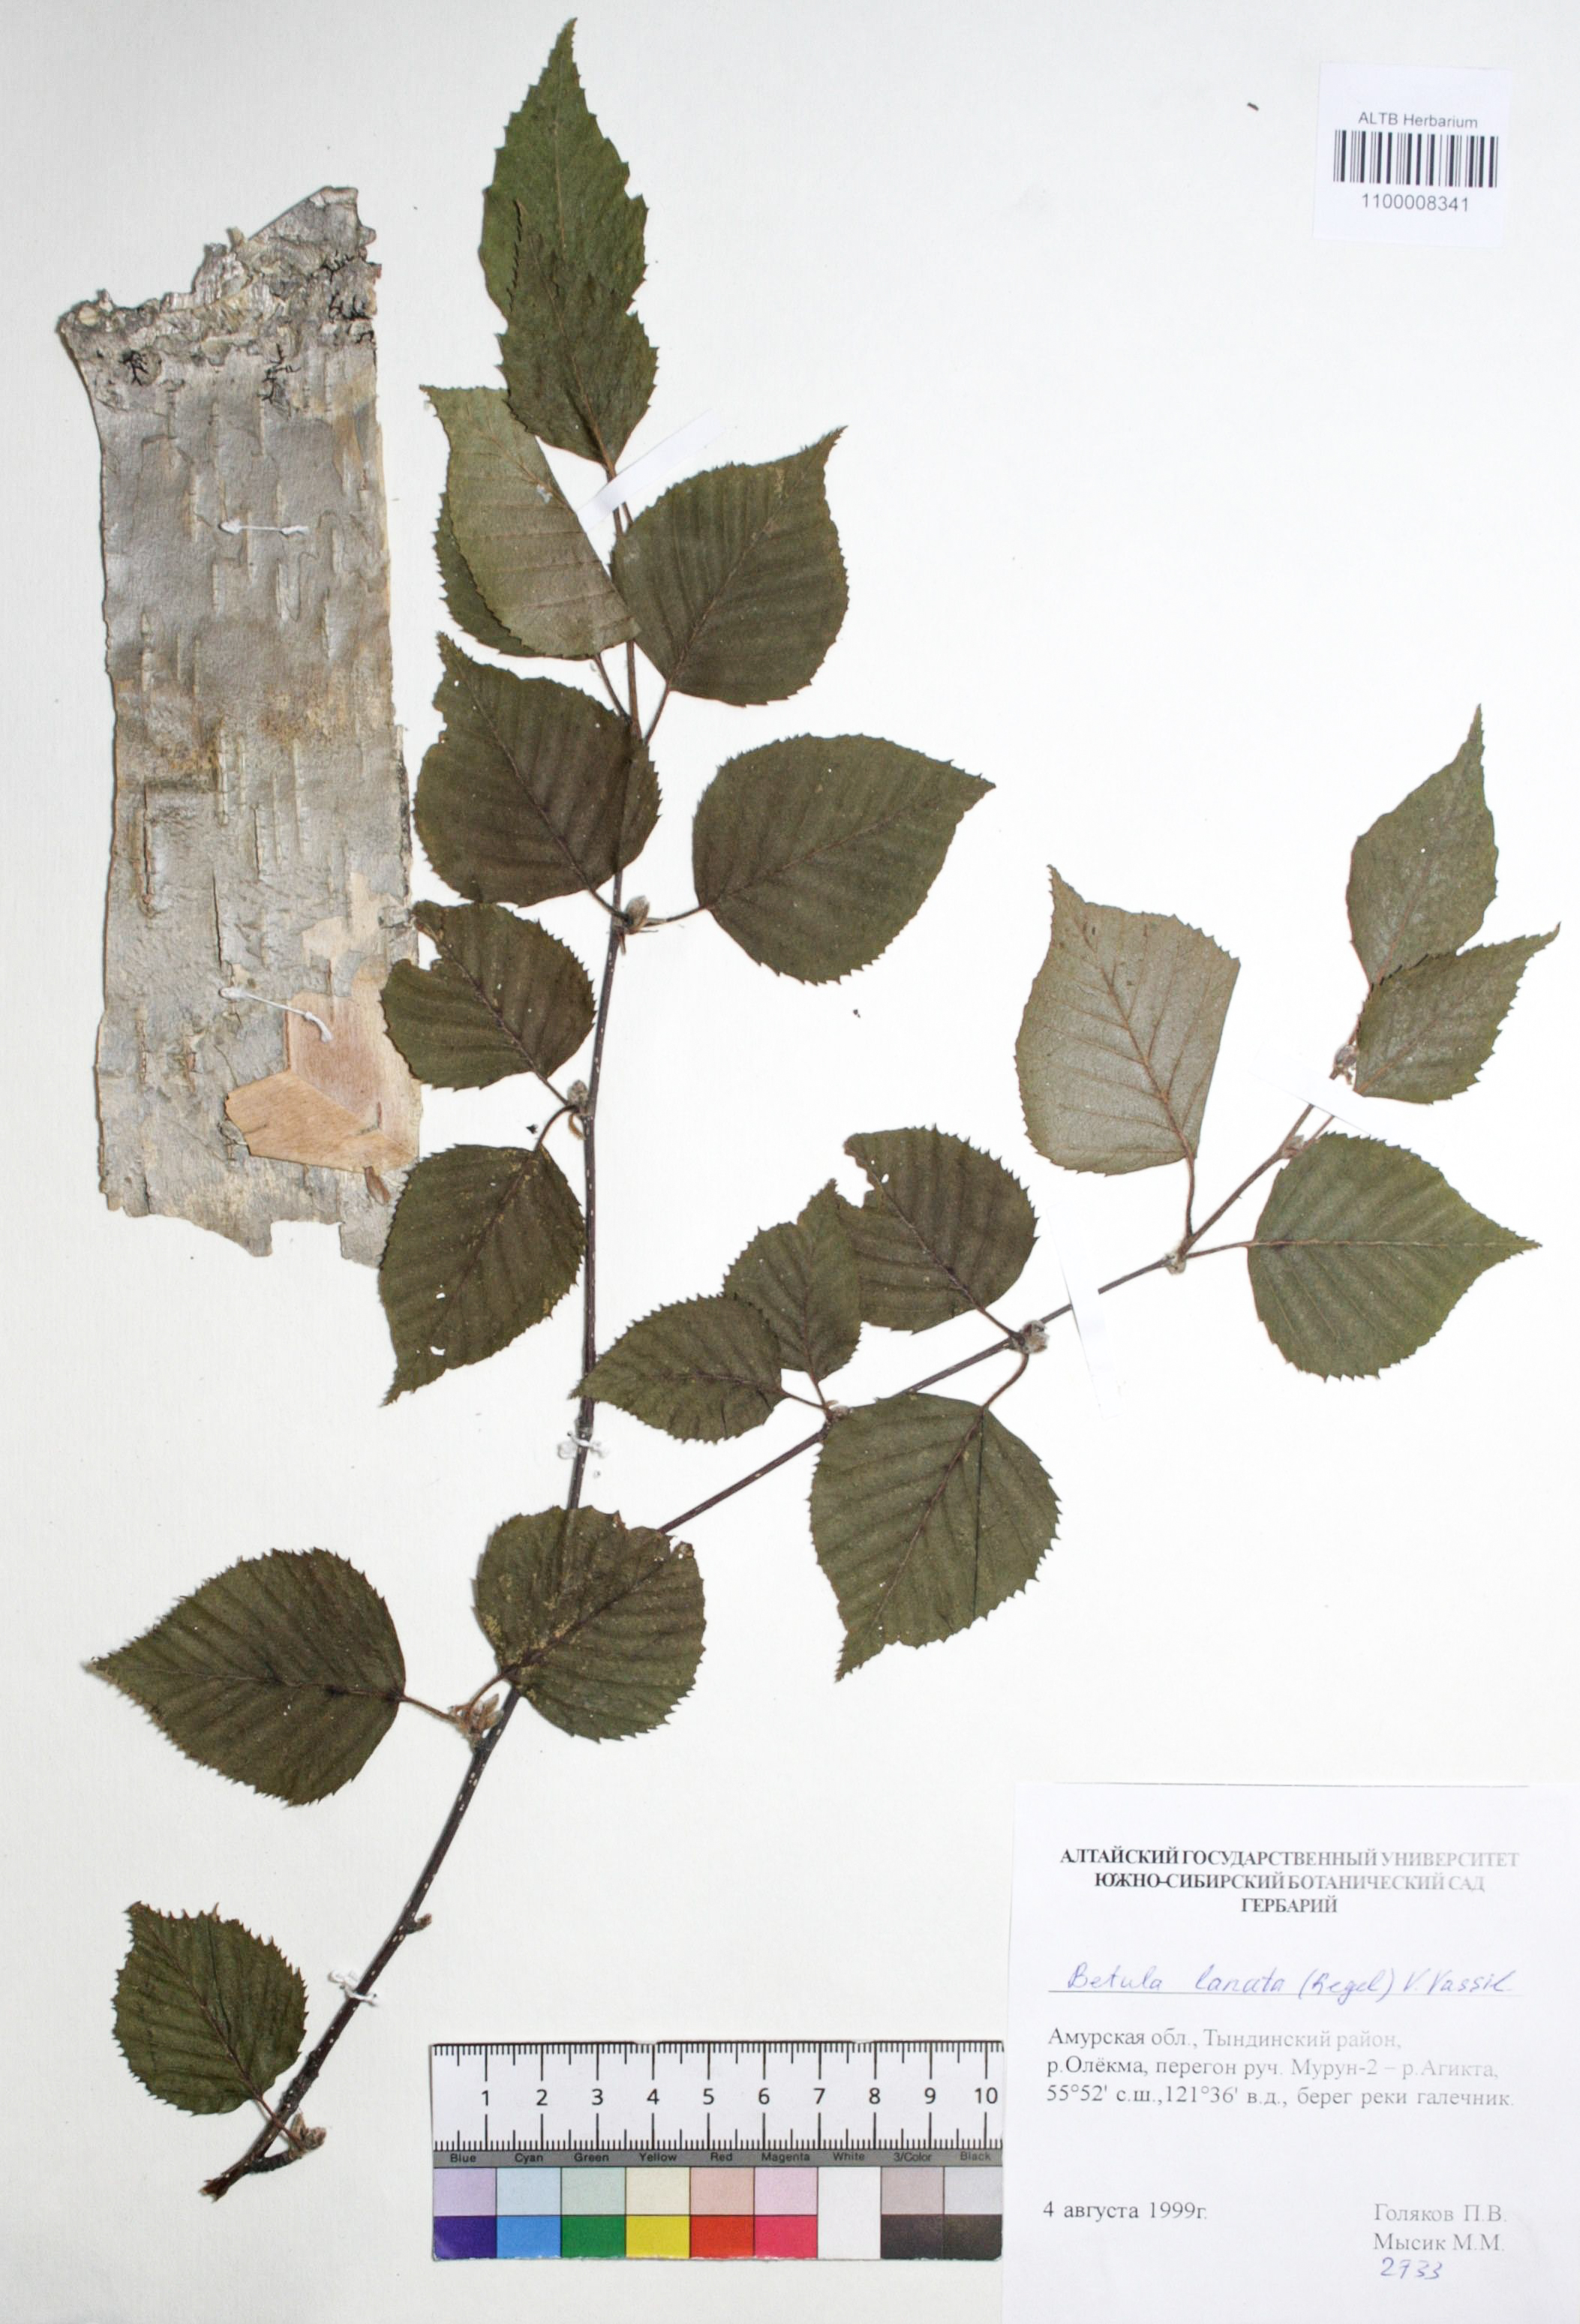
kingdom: Plantae
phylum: Tracheophyta
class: Magnoliopsida
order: Fagales
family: Betulaceae
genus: Betula
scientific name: Betula ermanii
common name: Erman's birch
